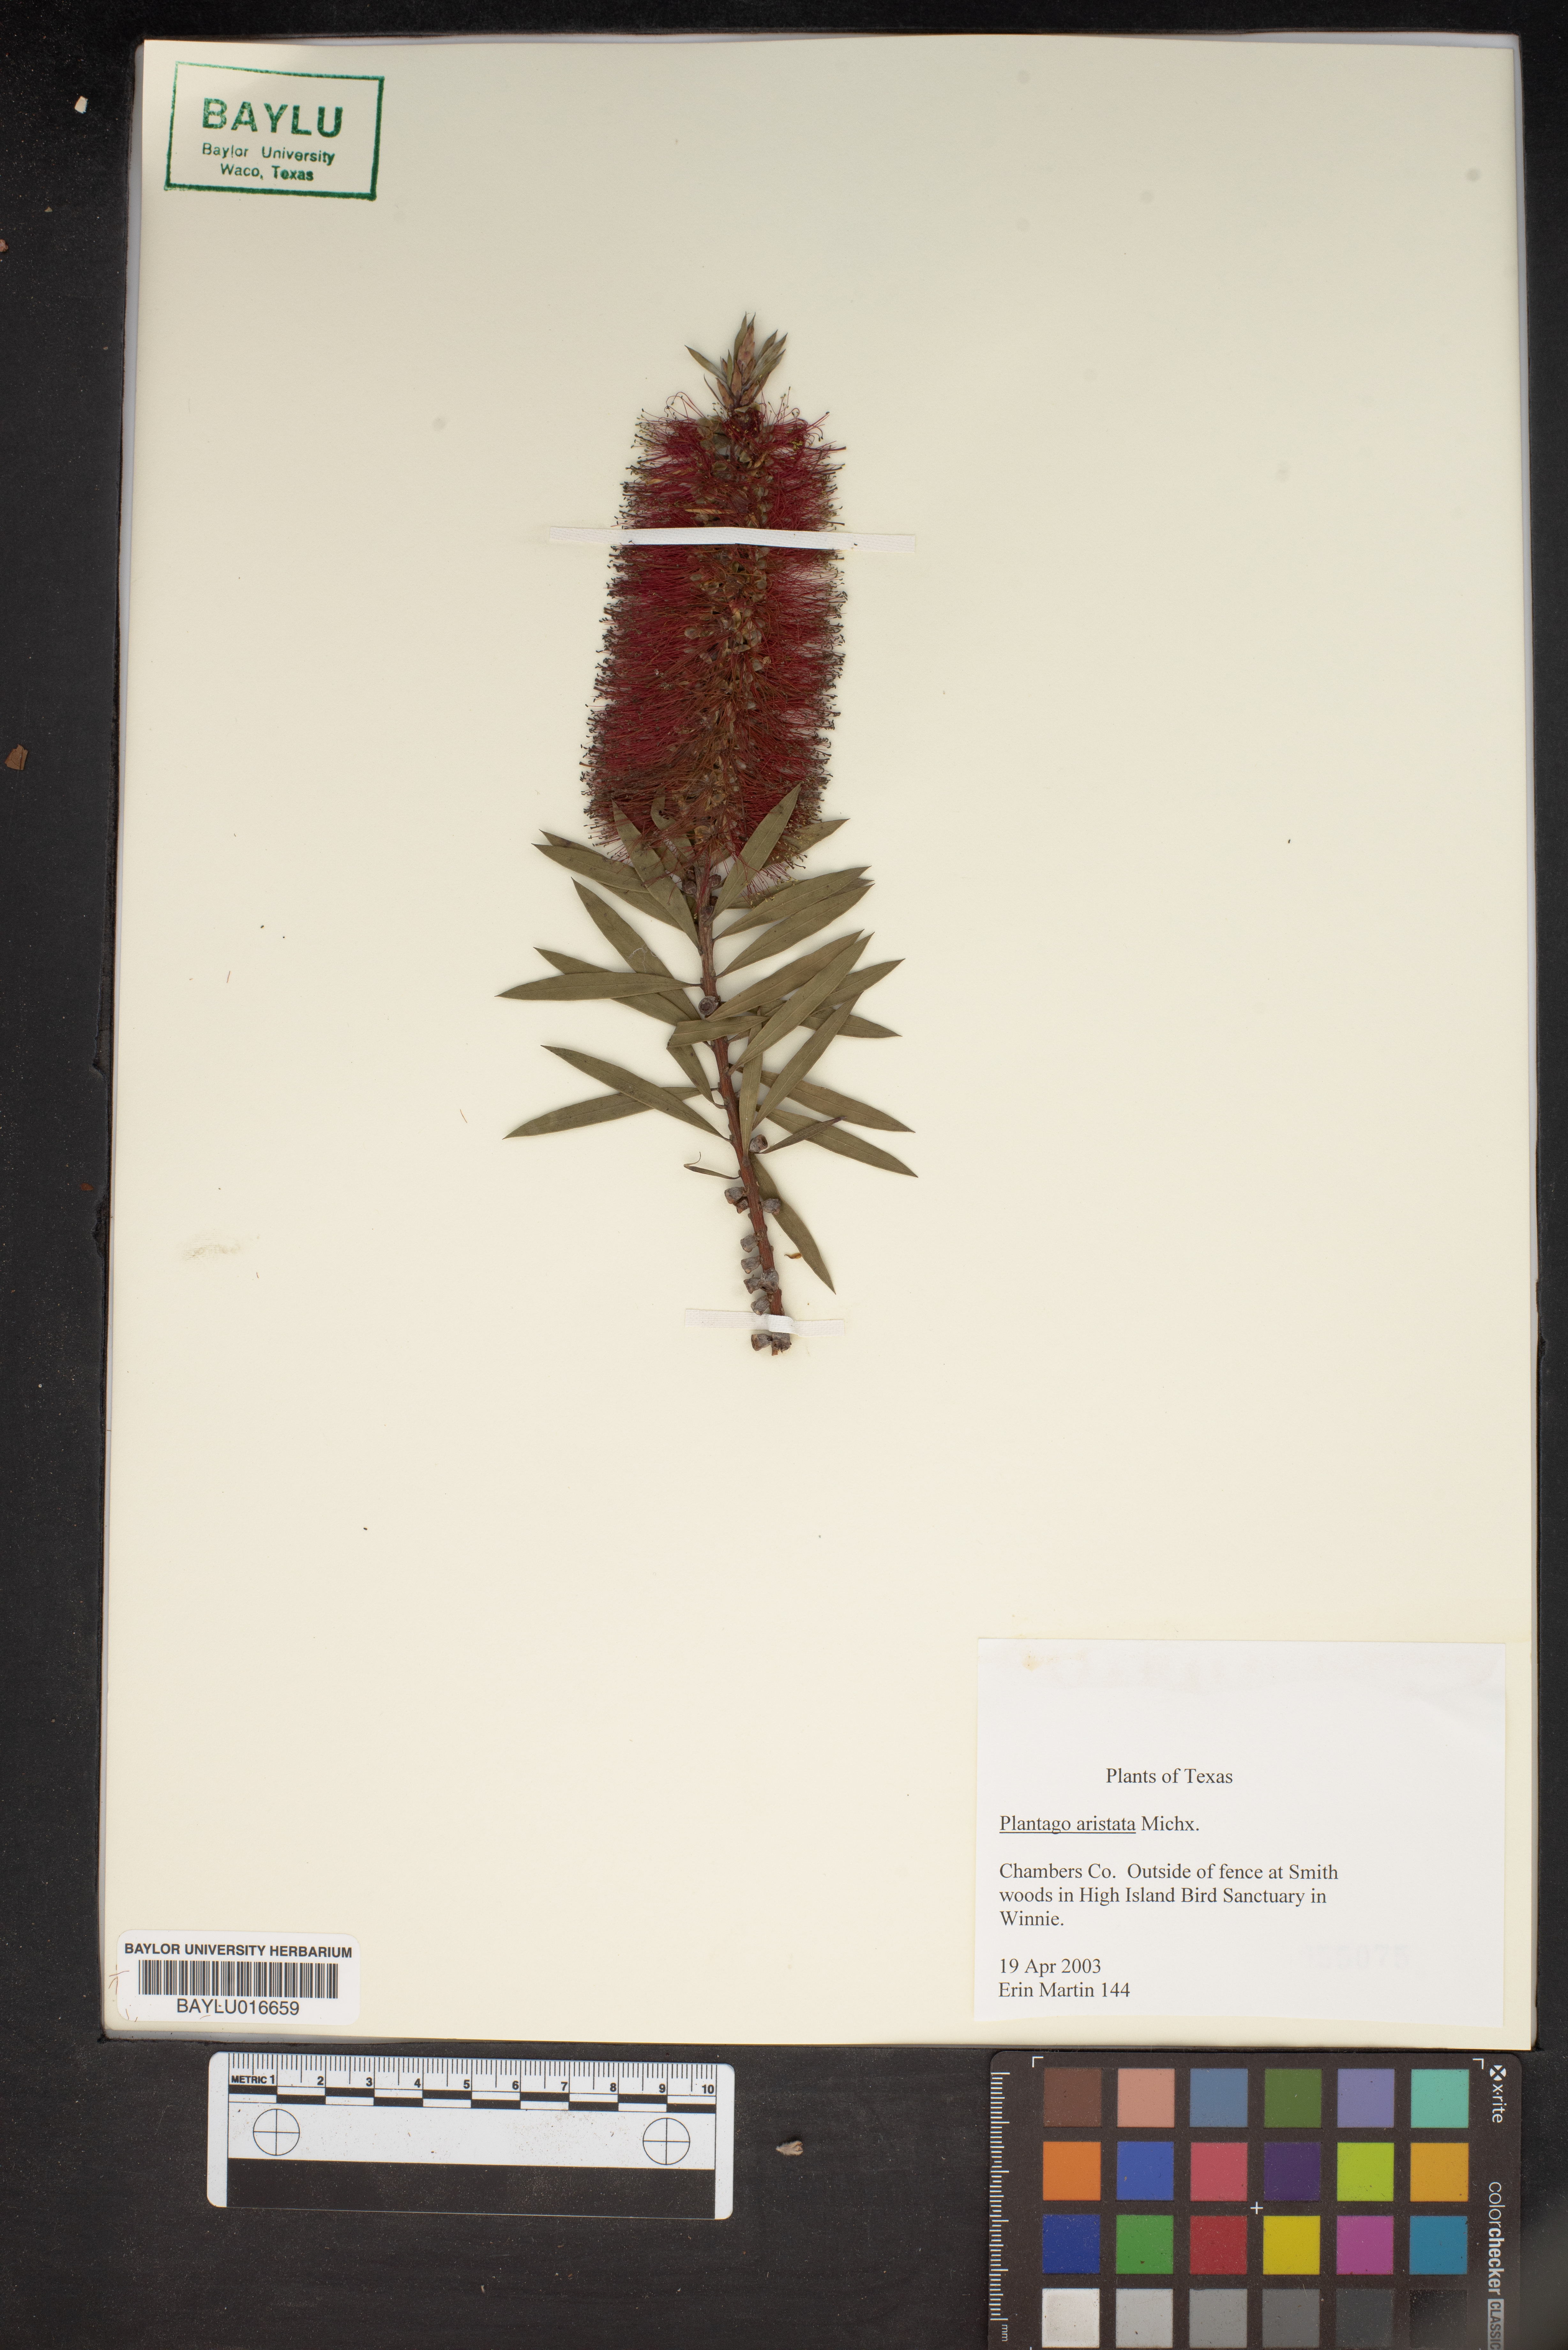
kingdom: Plantae
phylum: Tracheophyta
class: Magnoliopsida
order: Lamiales
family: Plantaginaceae
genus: Plantago
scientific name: Plantago aristata
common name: Bracted plantain
